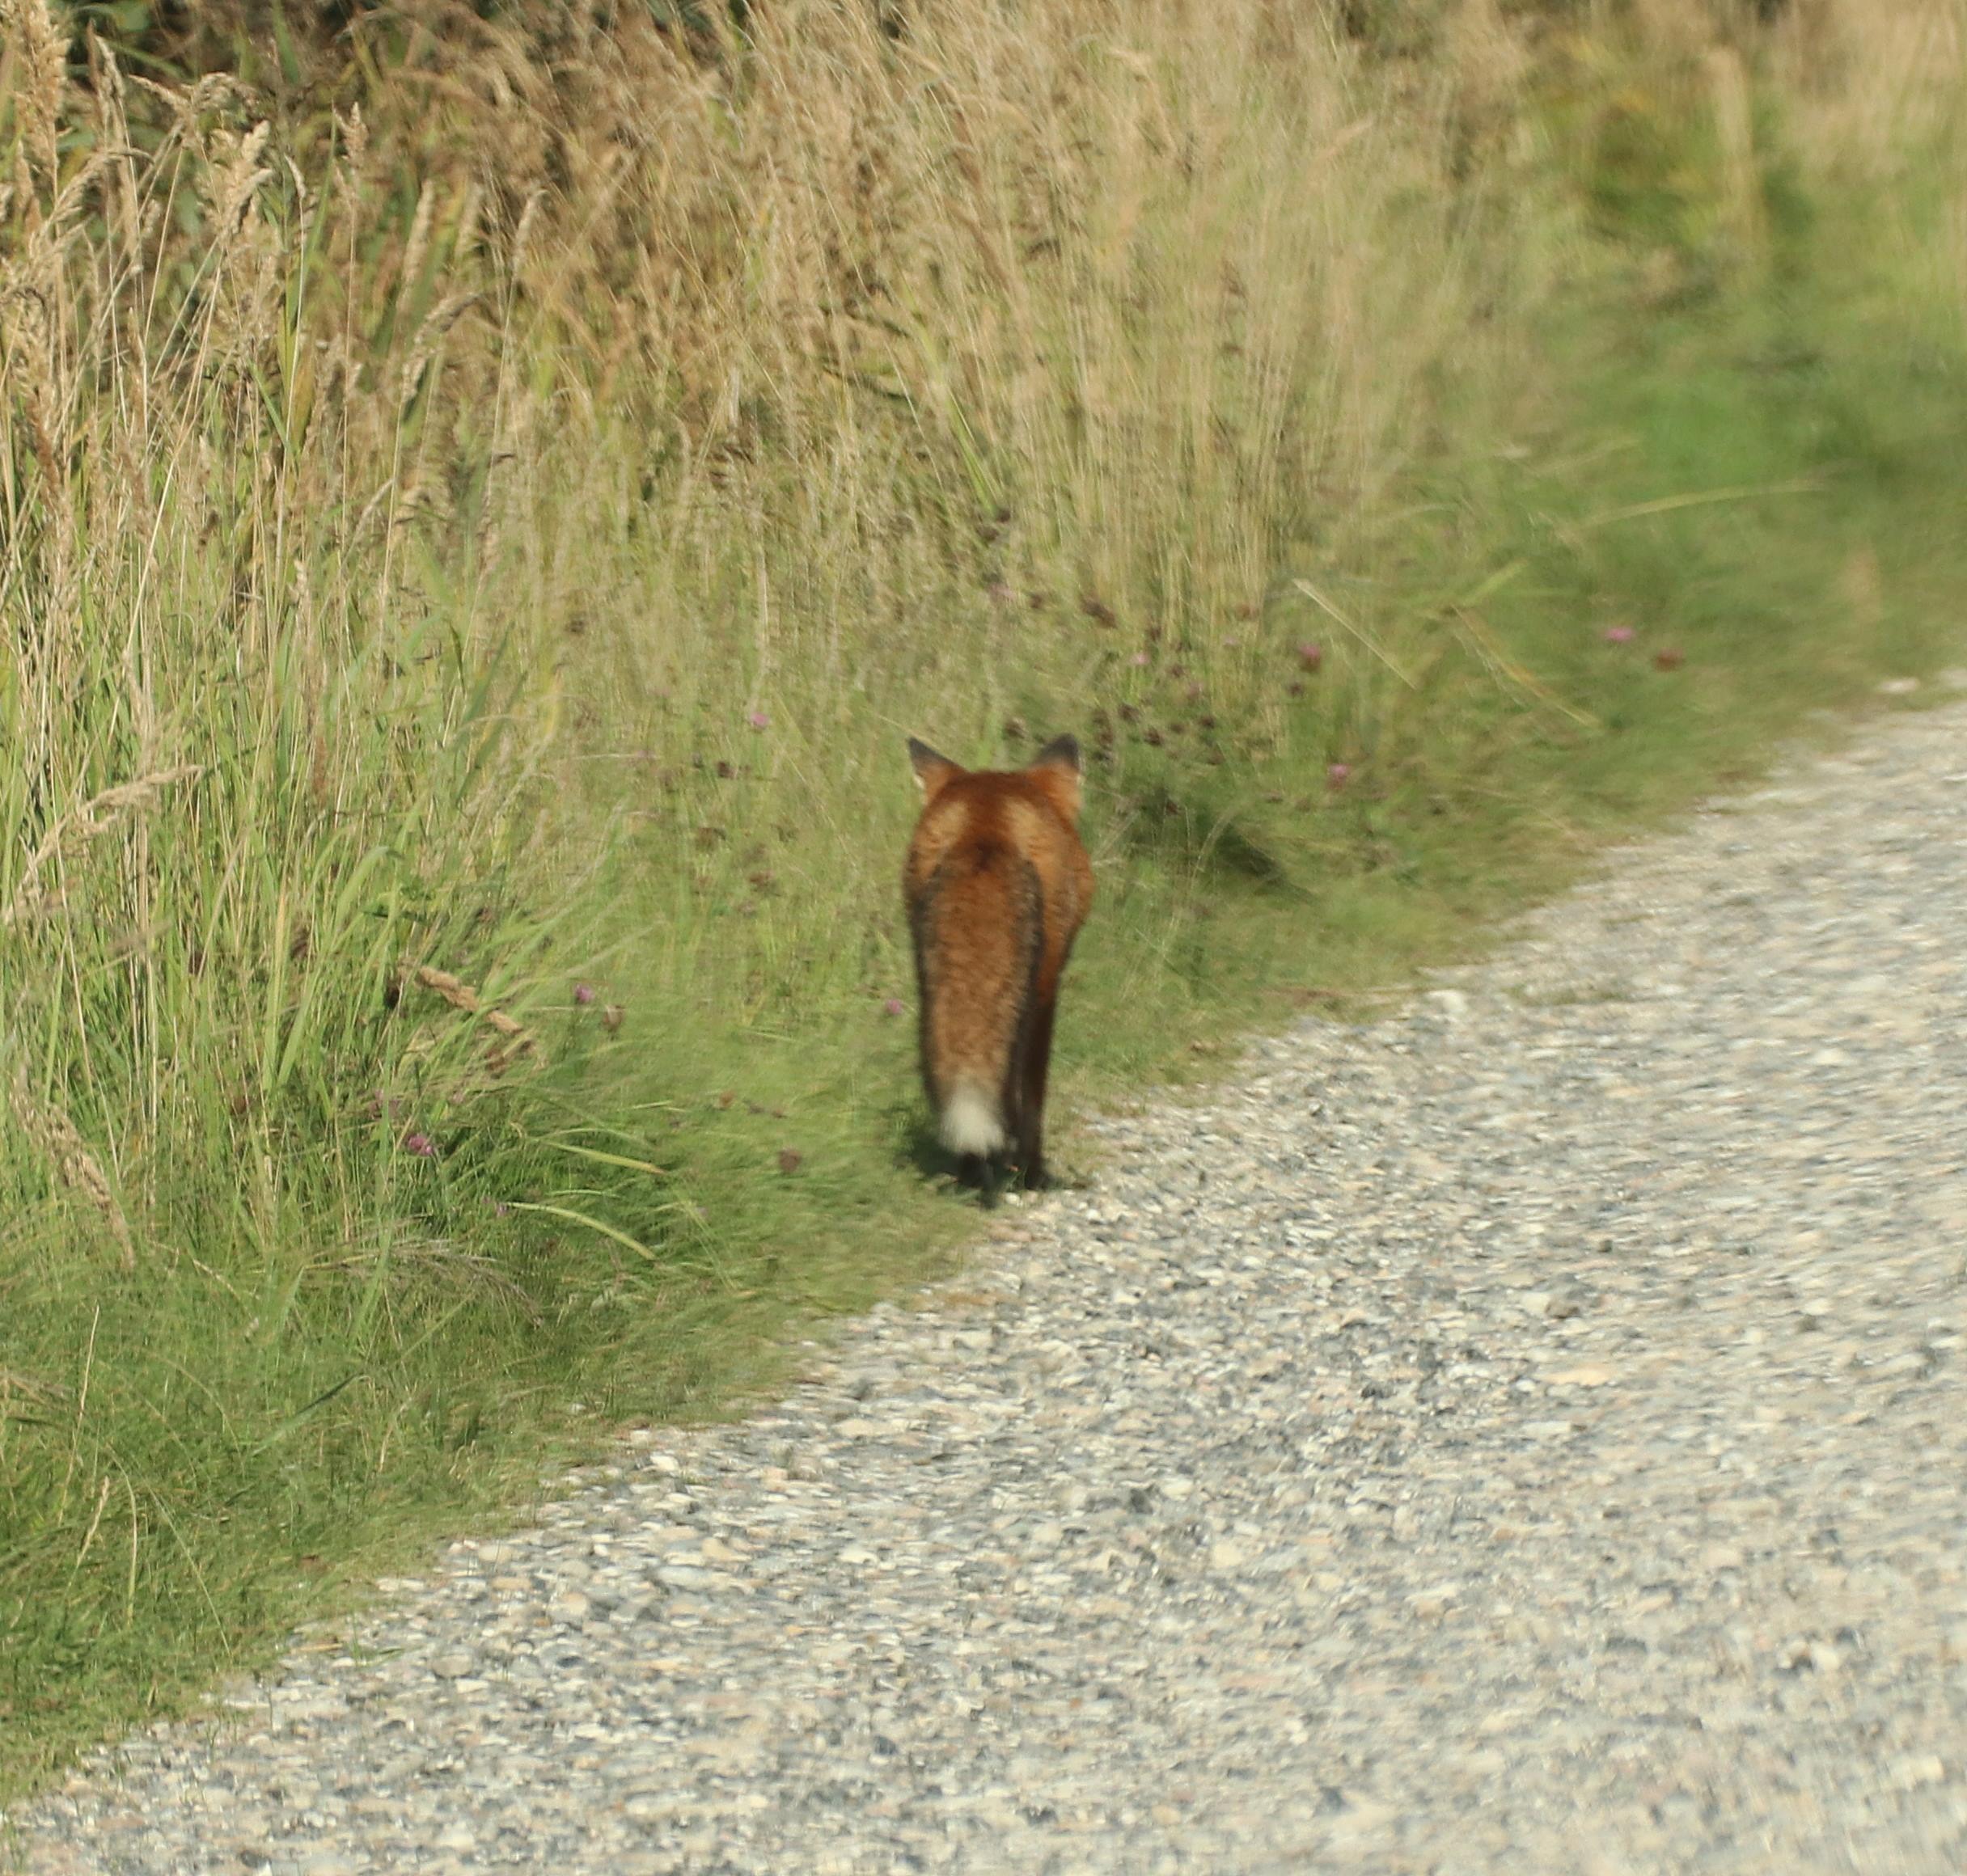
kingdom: Animalia
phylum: Chordata
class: Mammalia
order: Carnivora
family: Canidae
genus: Vulpes
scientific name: Vulpes vulpes
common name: Ræv
